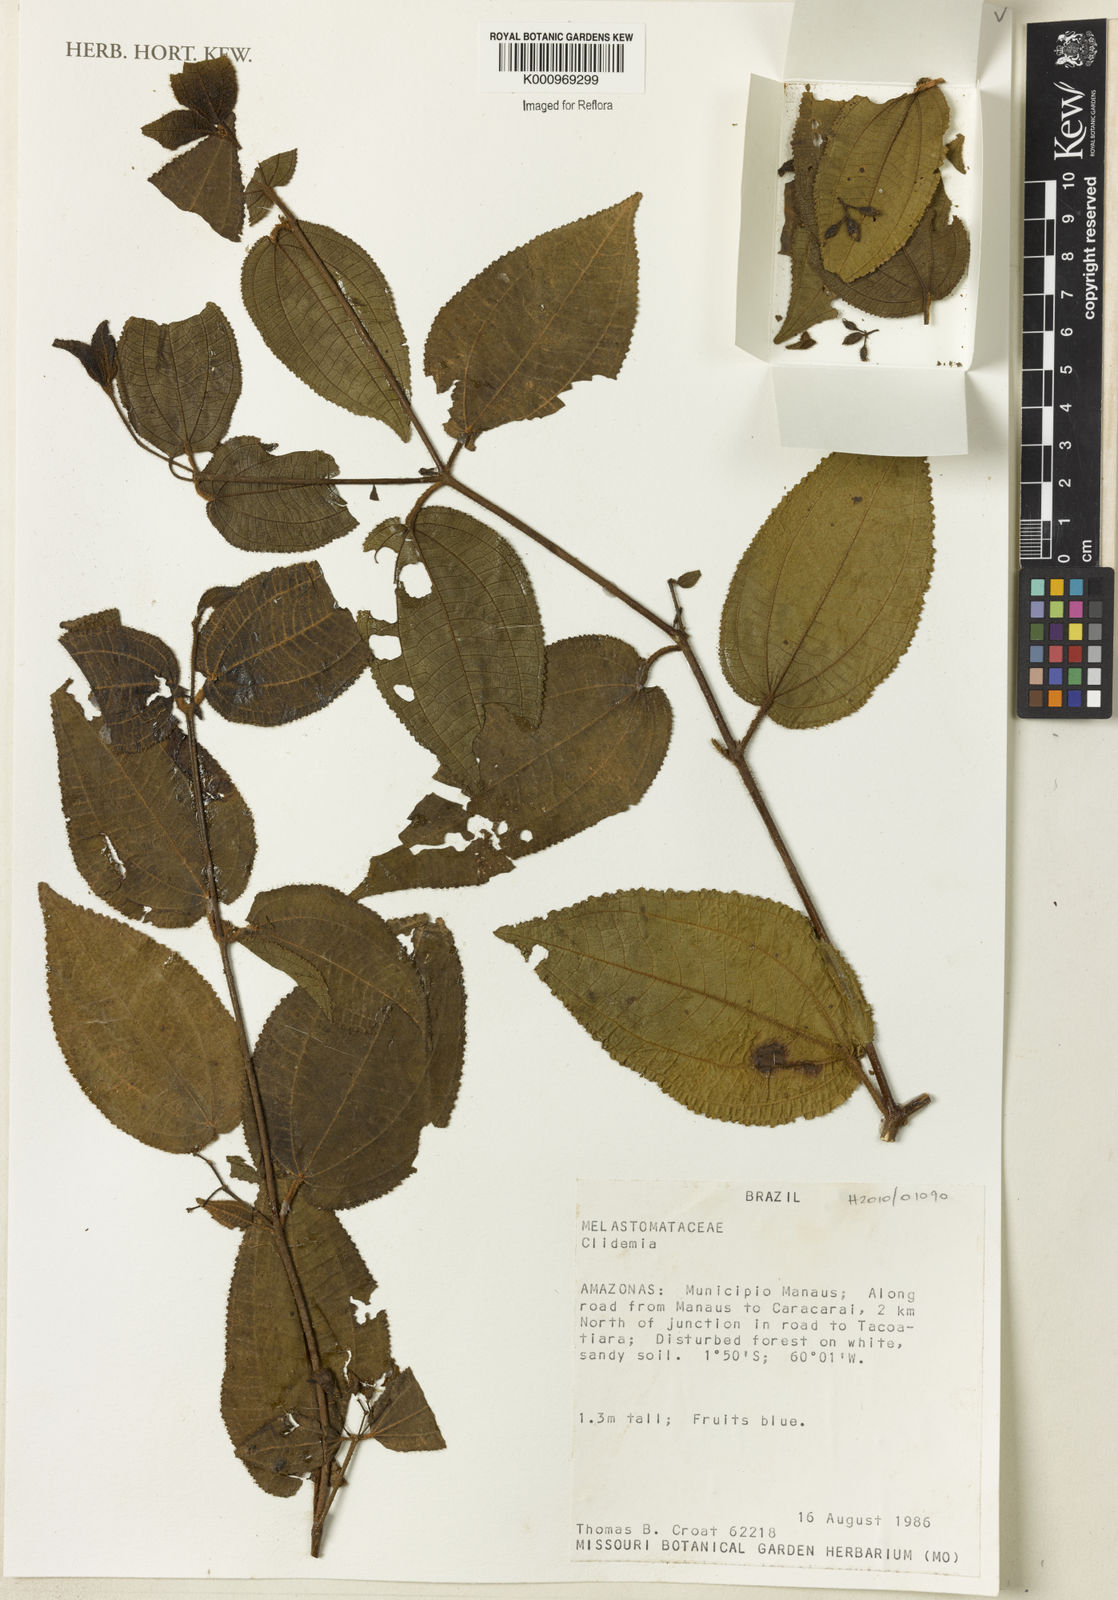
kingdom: Plantae
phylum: Tracheophyta
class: Magnoliopsida
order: Myrtales
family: Melastomataceae
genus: Miconia
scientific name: Miconia
